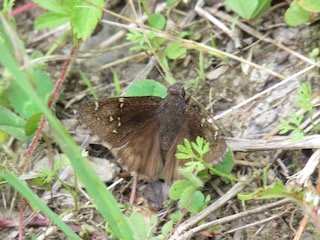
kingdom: Animalia
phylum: Arthropoda
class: Insecta
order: Lepidoptera
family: Hesperiidae
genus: Autochton
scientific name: Autochton
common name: Northern Cloudywing
